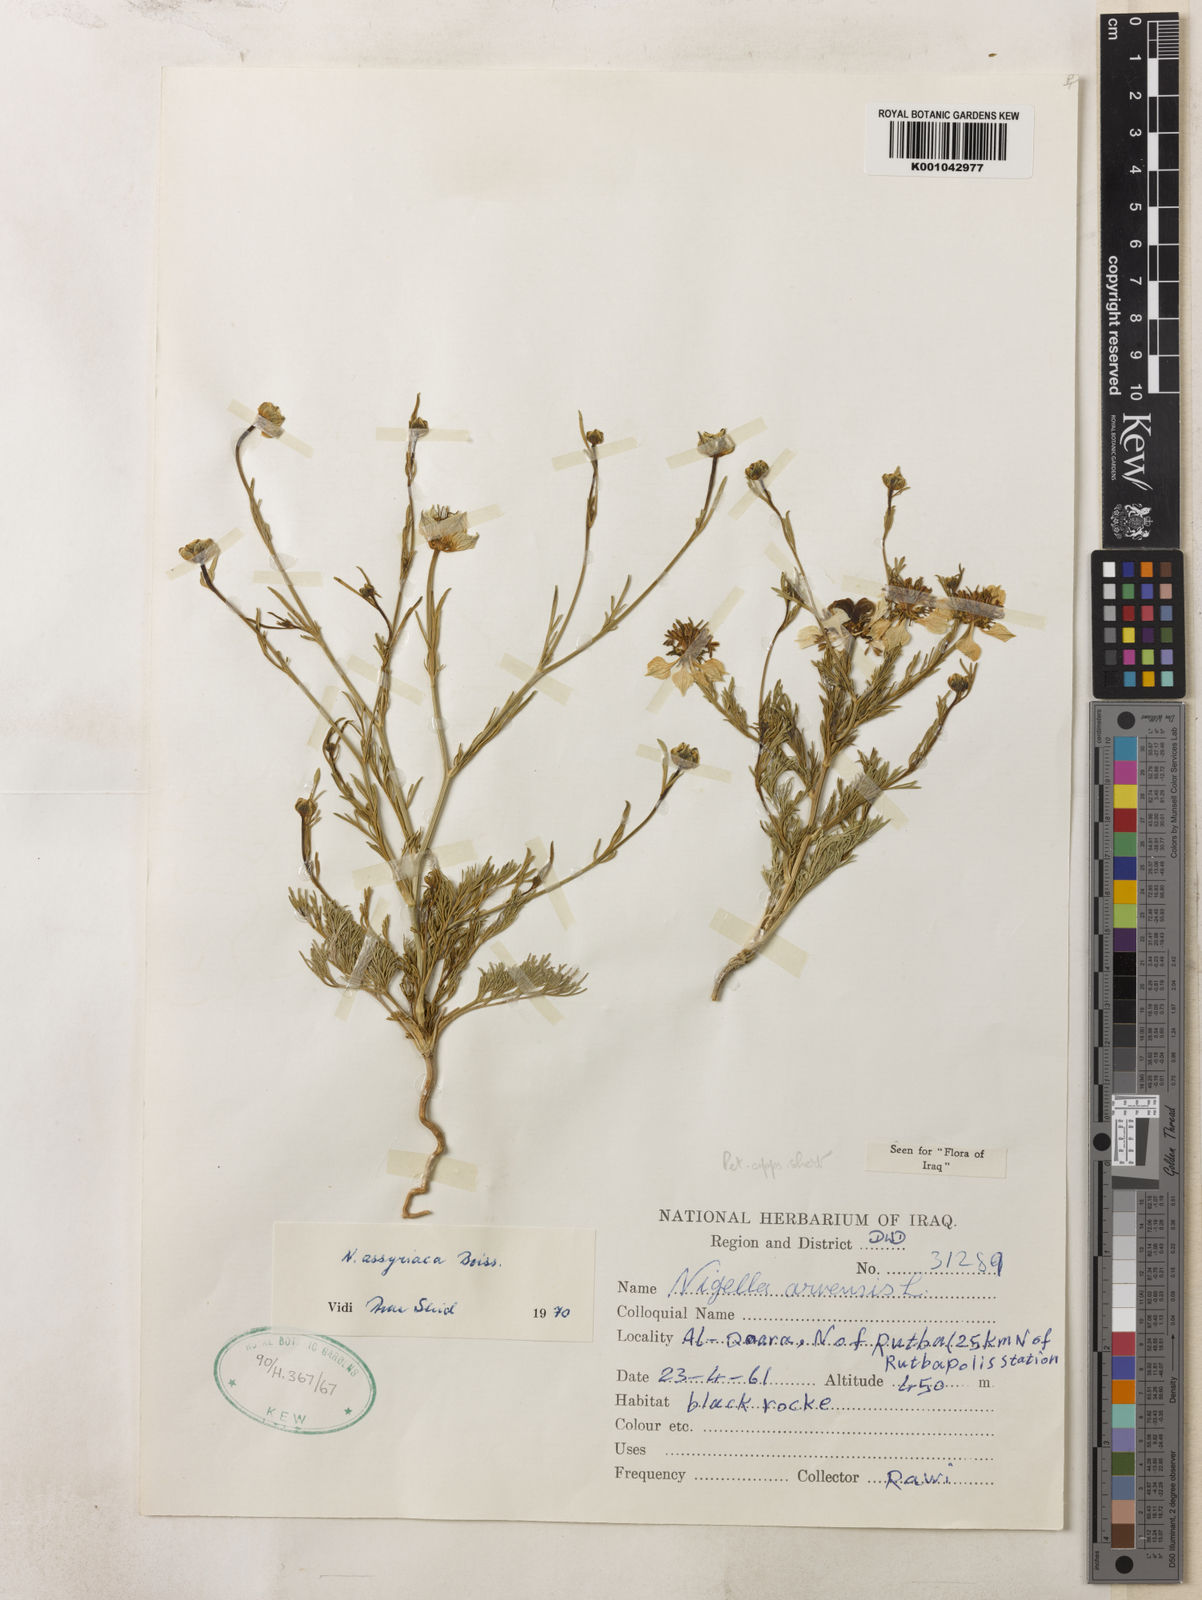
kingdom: Plantae
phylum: Tracheophyta
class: Magnoliopsida
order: Ranunculales
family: Ranunculaceae
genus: Nigella
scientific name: Nigella arvensis
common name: Wild fennel-flower
